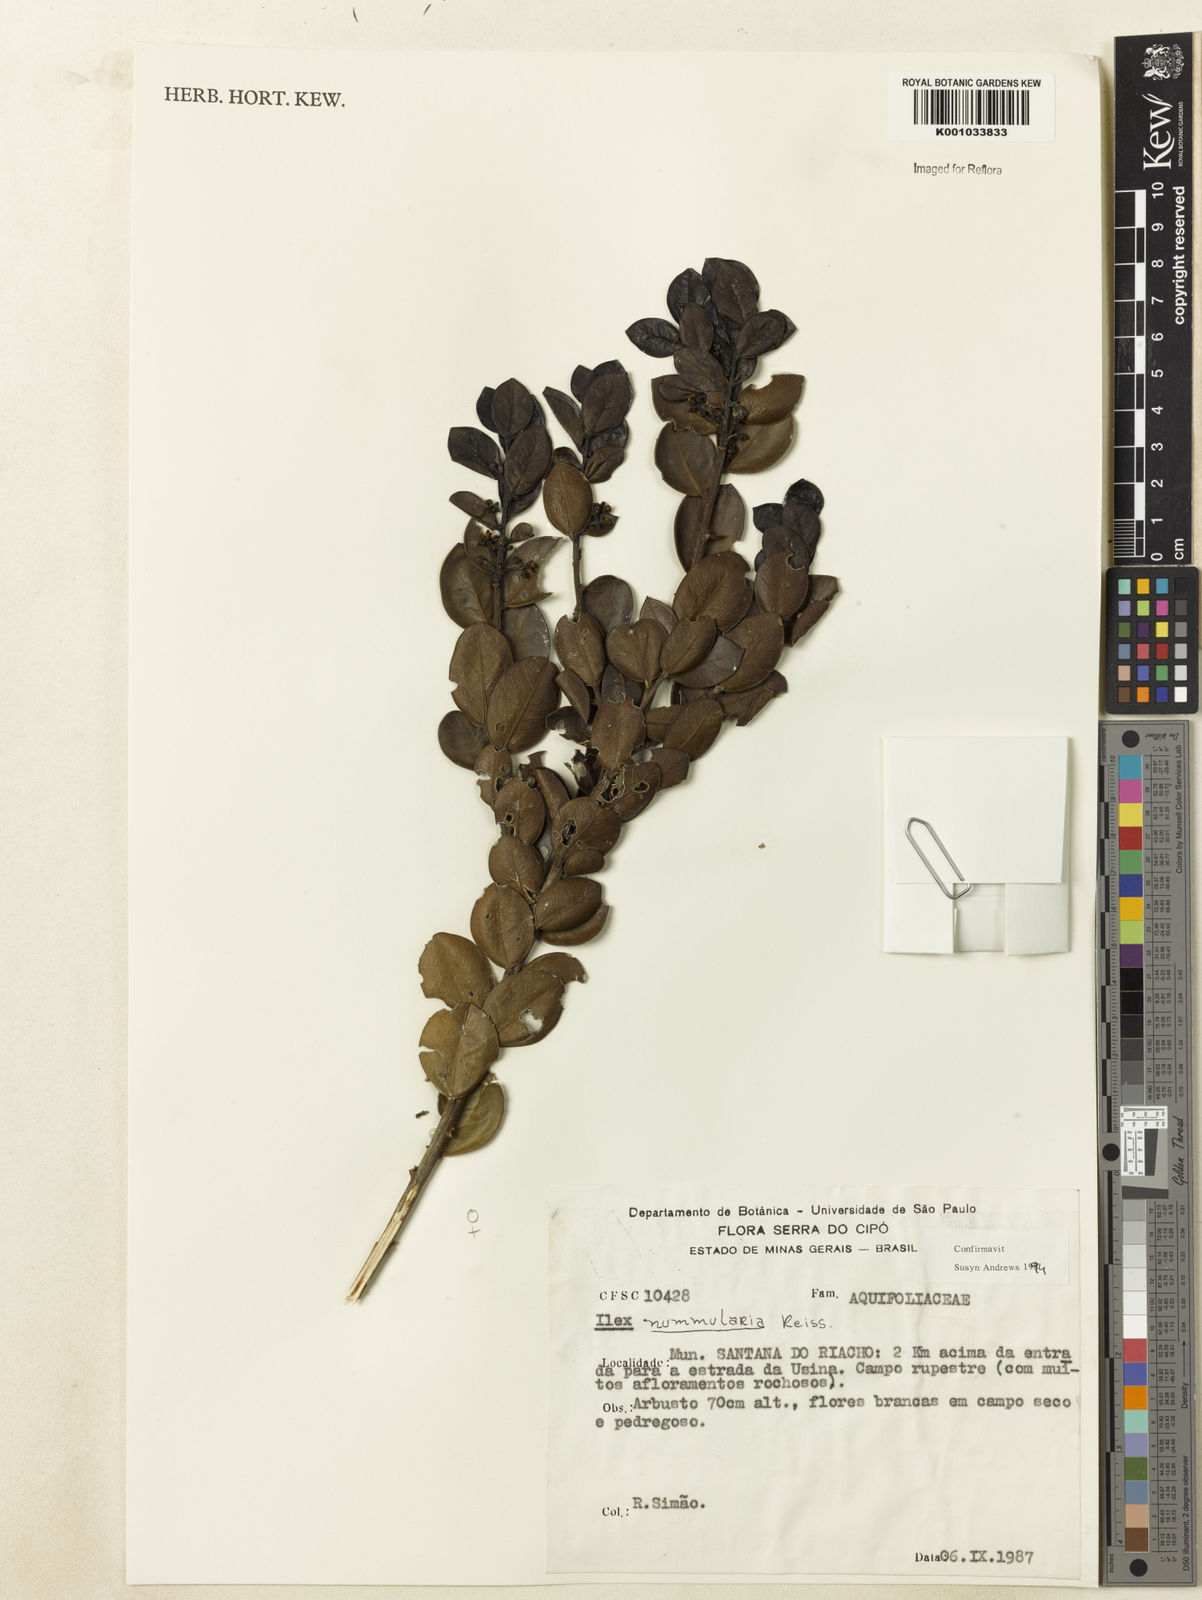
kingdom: Plantae
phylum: Tracheophyta
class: Magnoliopsida
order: Aquifoliales
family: Aquifoliaceae
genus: Ilex
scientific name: Ilex nummularia
